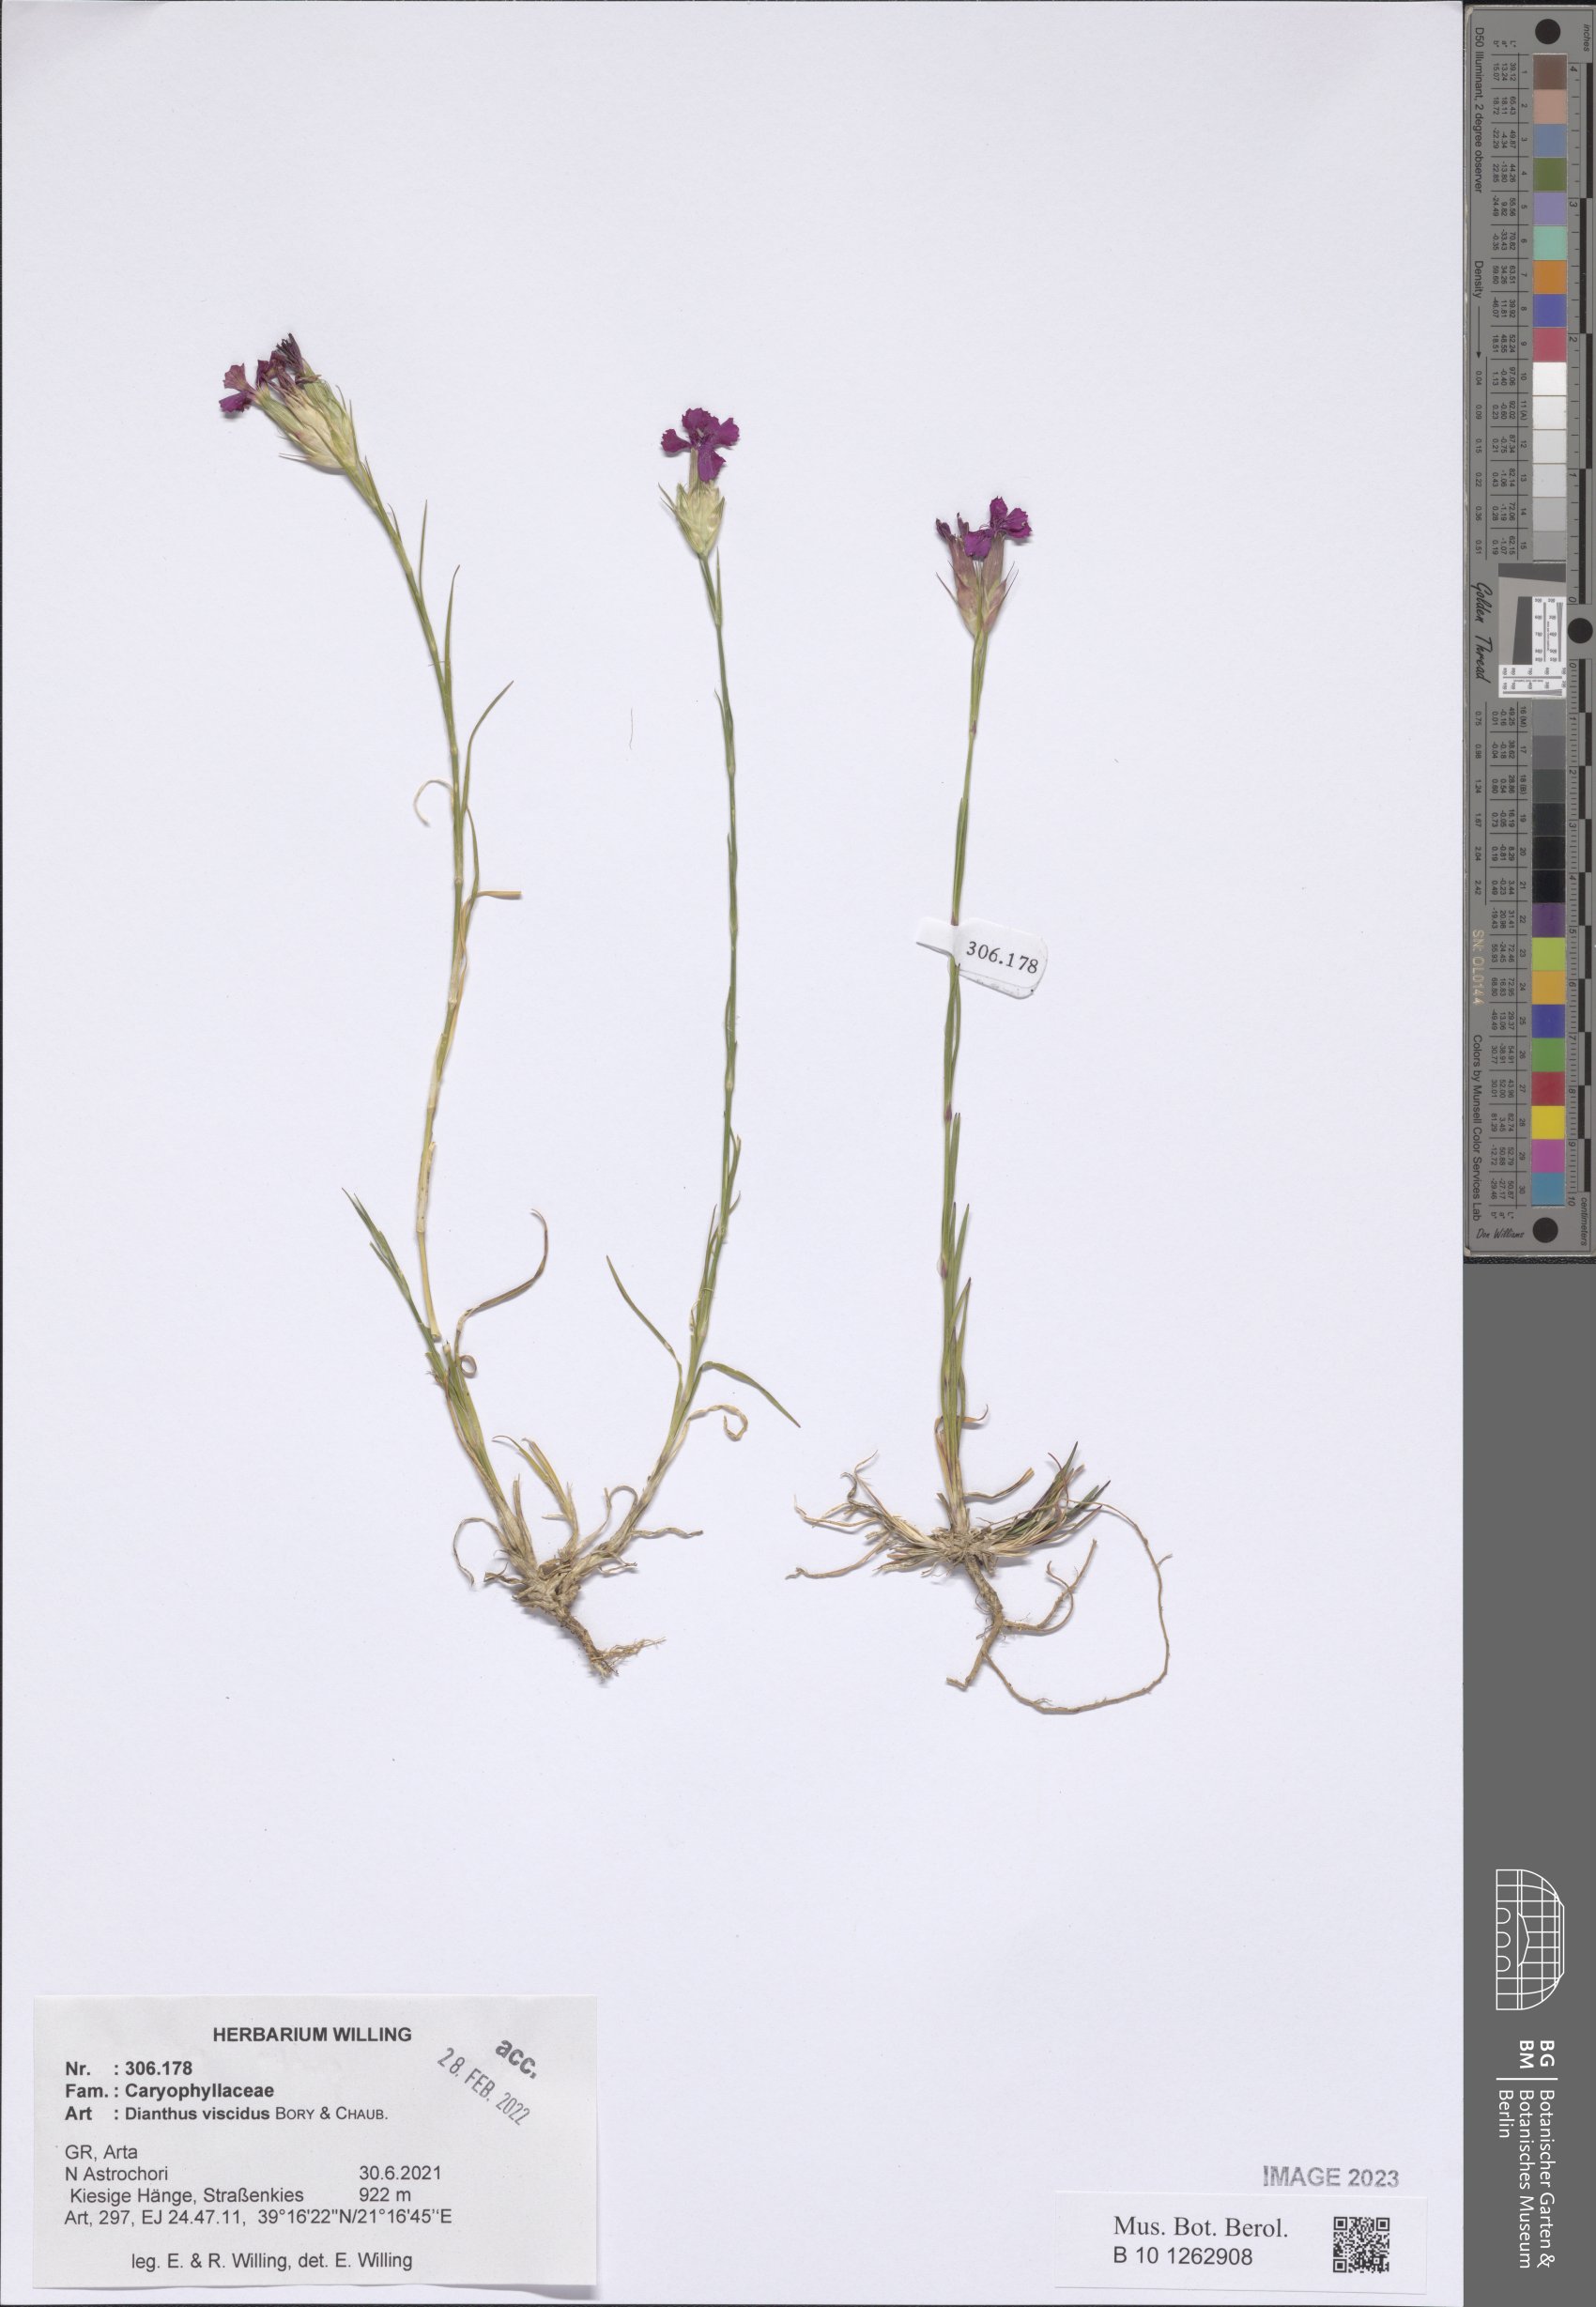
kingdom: Plantae
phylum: Tracheophyta
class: Magnoliopsida
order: Caryophyllales
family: Caryophyllaceae
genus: Dianthus
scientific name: Dianthus viscidus
